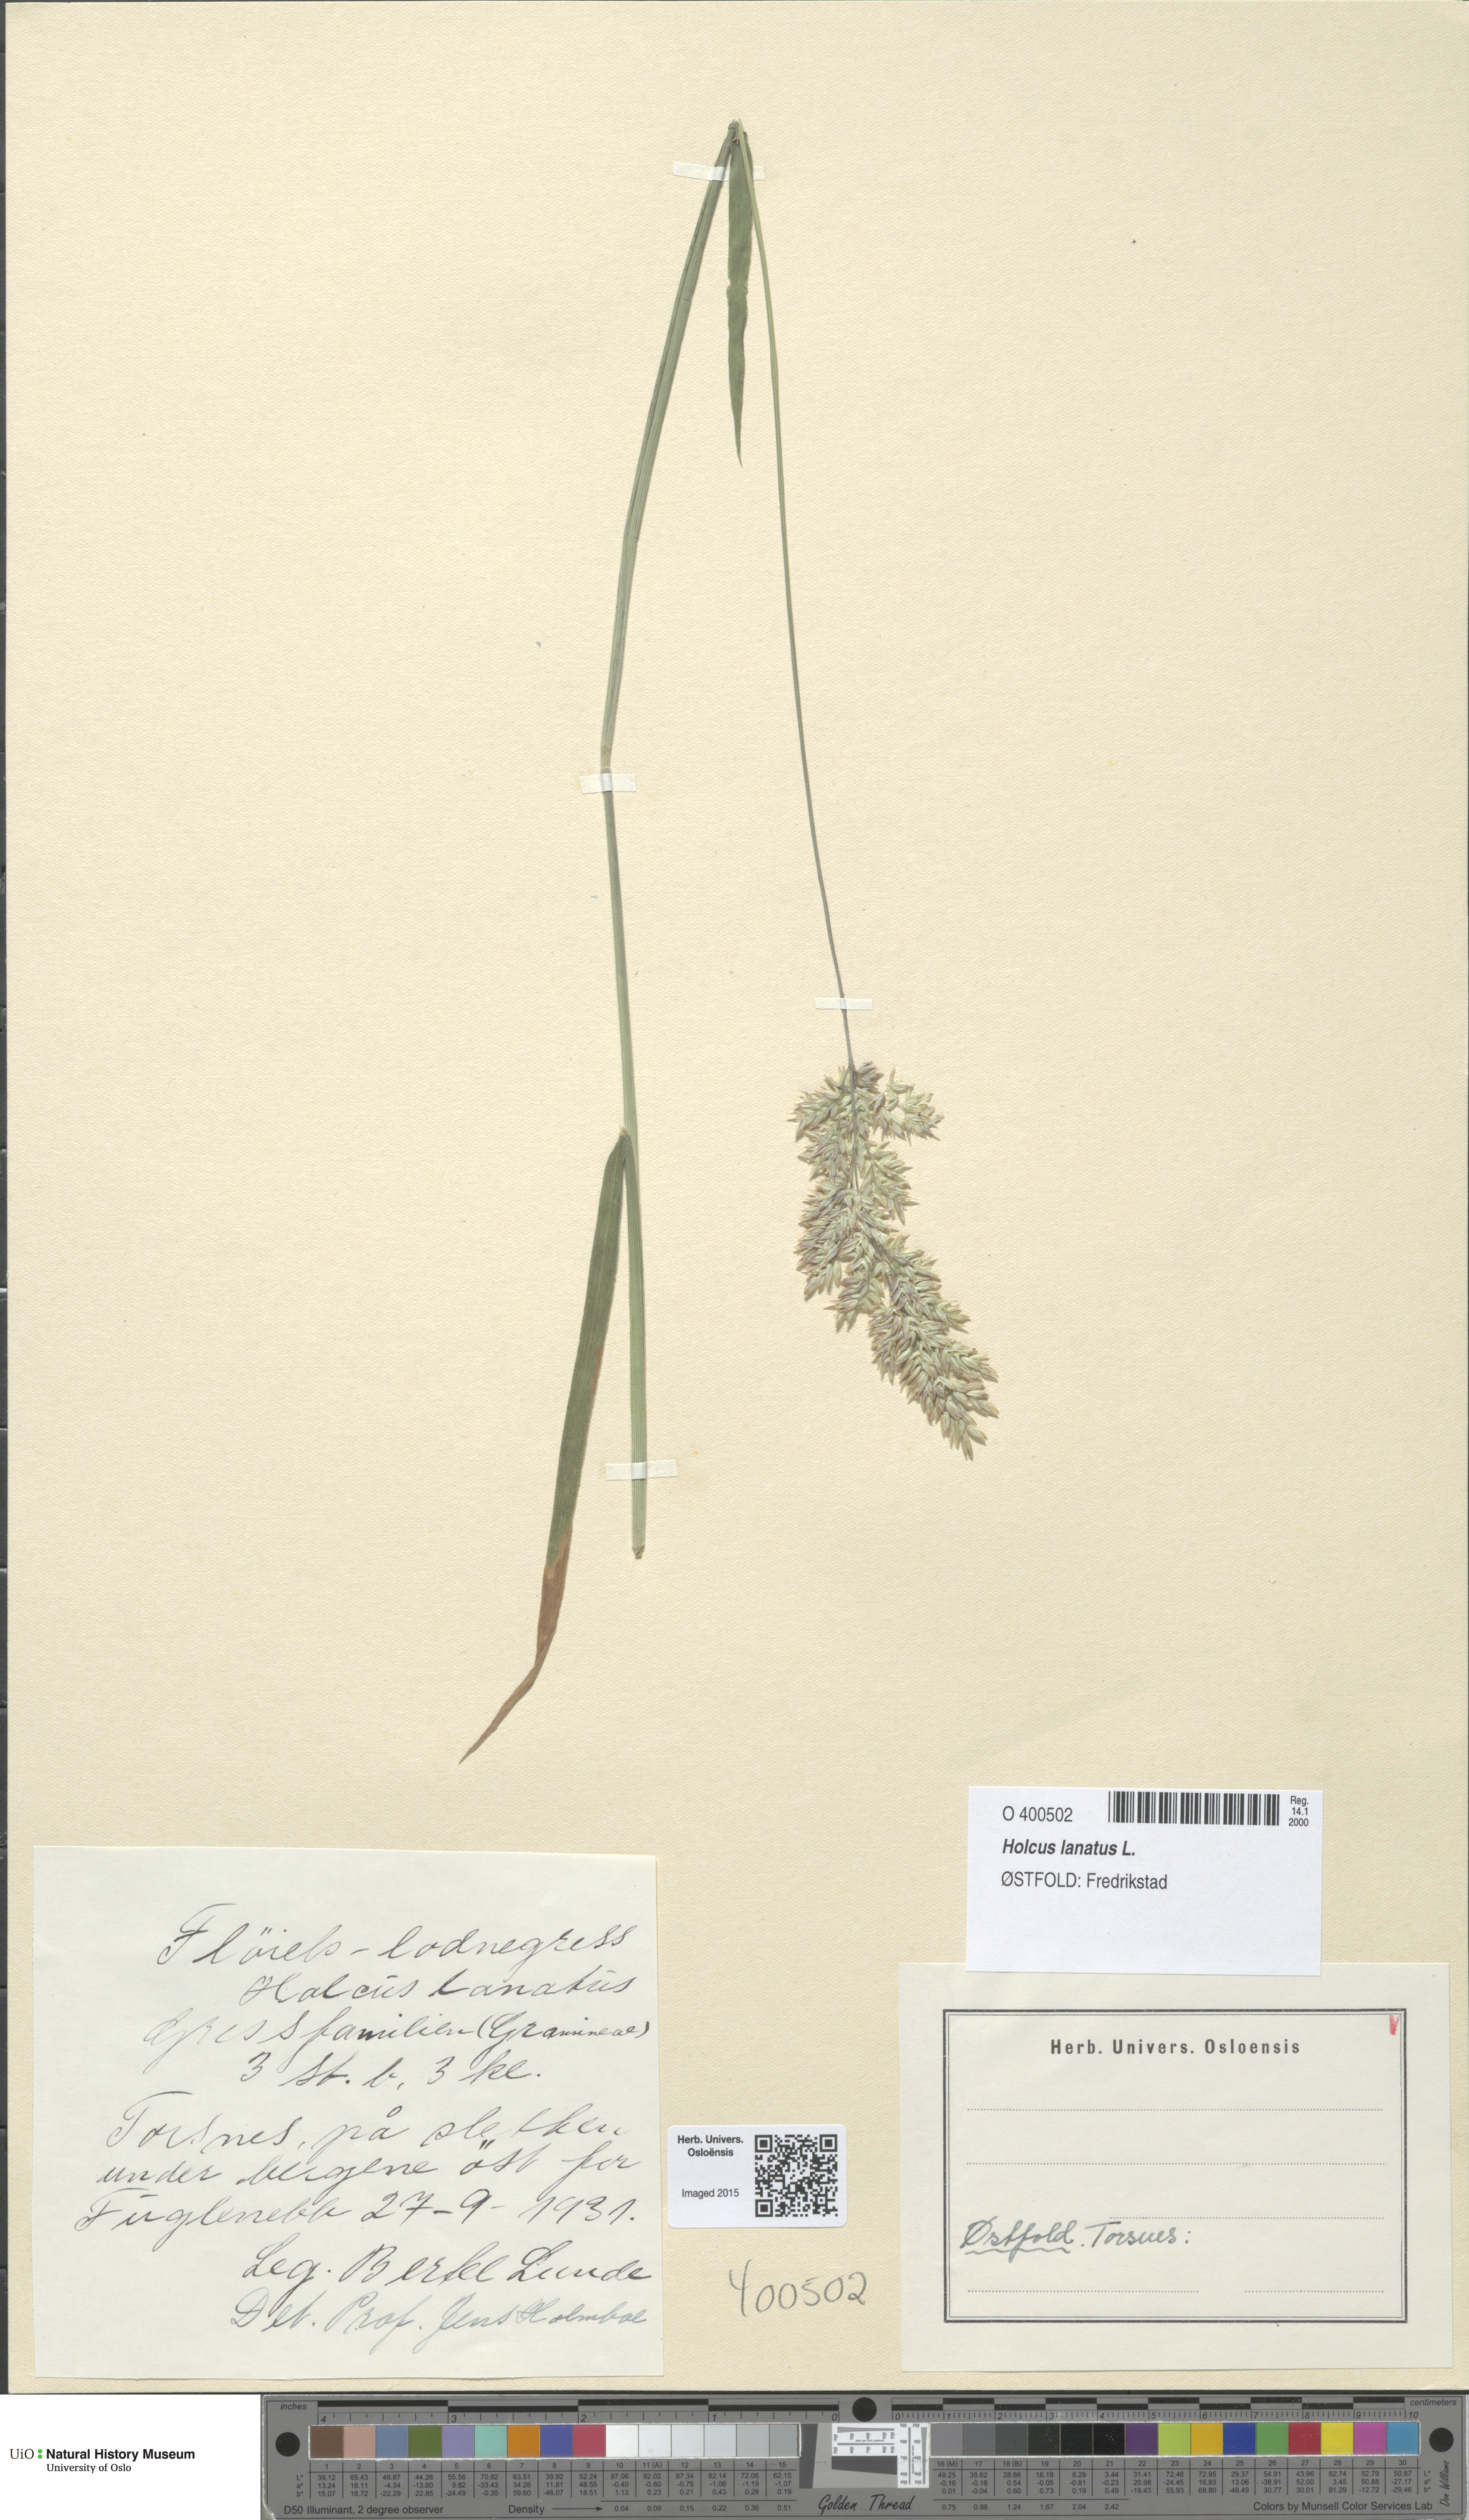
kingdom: Plantae
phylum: Tracheophyta
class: Liliopsida
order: Poales
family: Poaceae
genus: Holcus
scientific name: Holcus lanatus
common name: Yorkshire-fog
